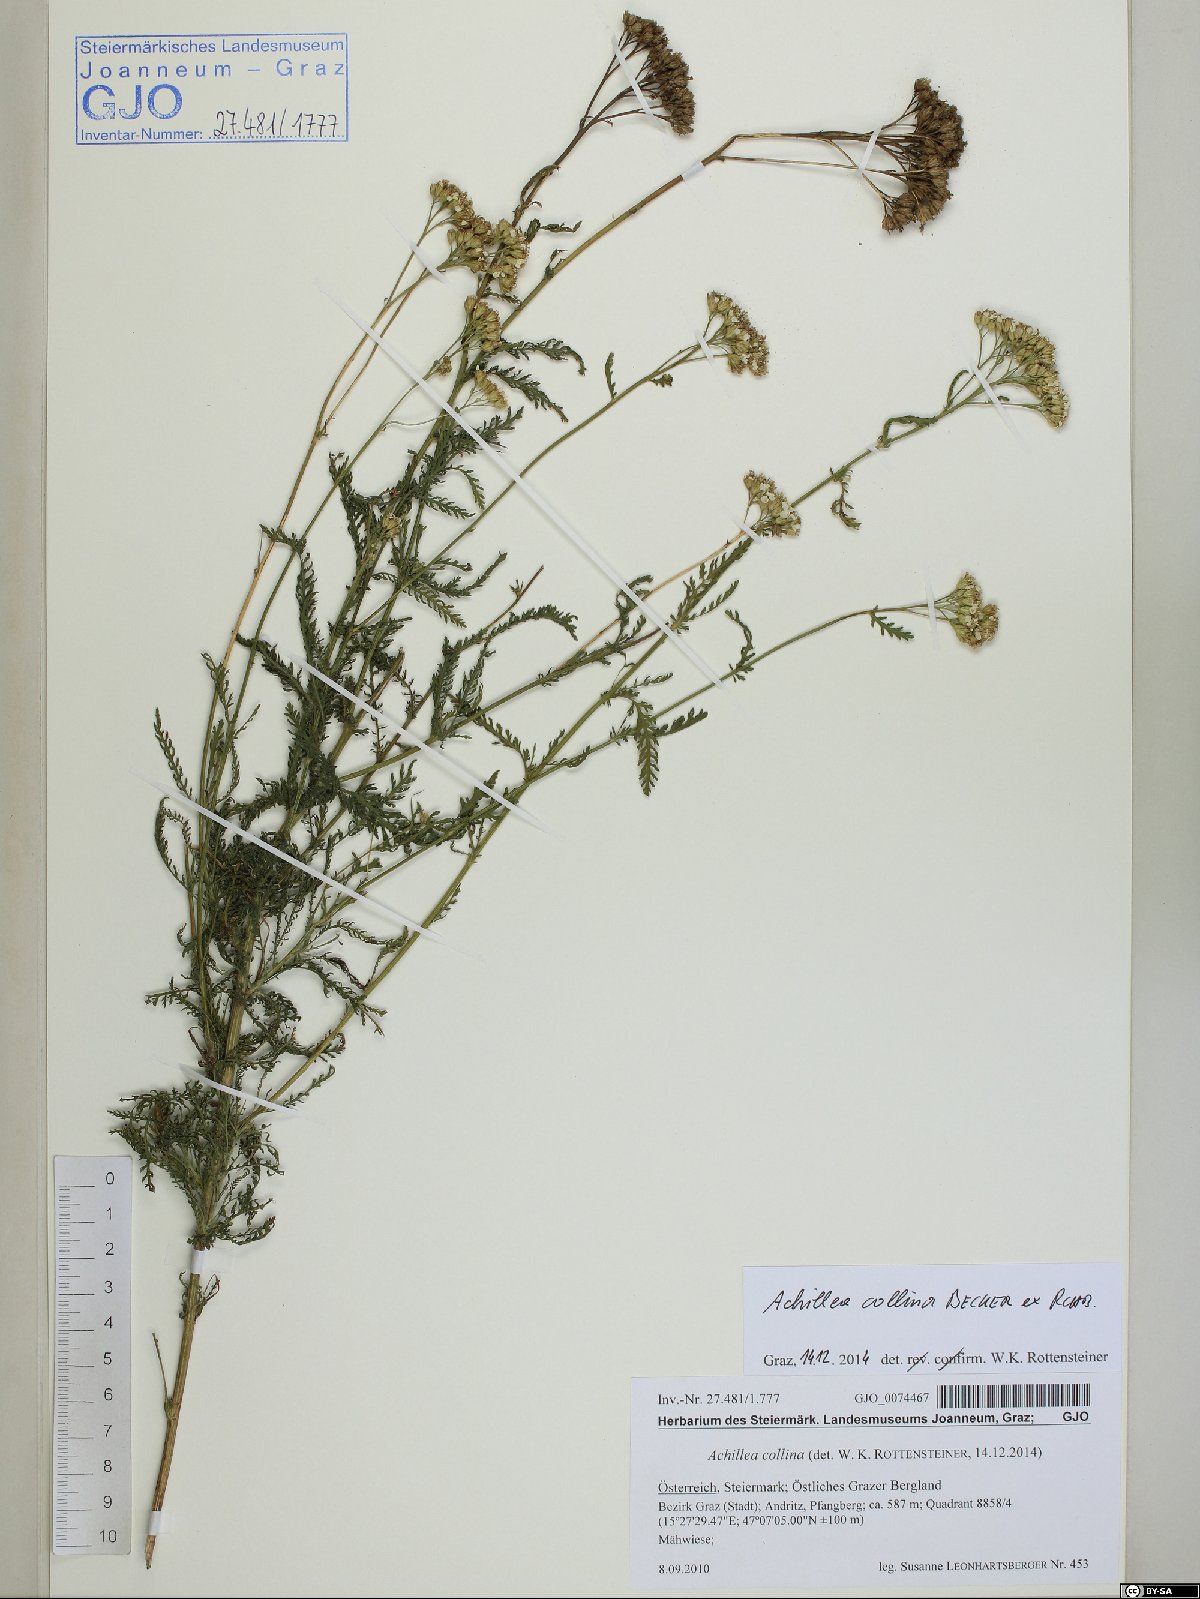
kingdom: Plantae
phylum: Tracheophyta
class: Magnoliopsida
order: Asterales
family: Asteraceae
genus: Achillea
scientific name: Achillea collina
